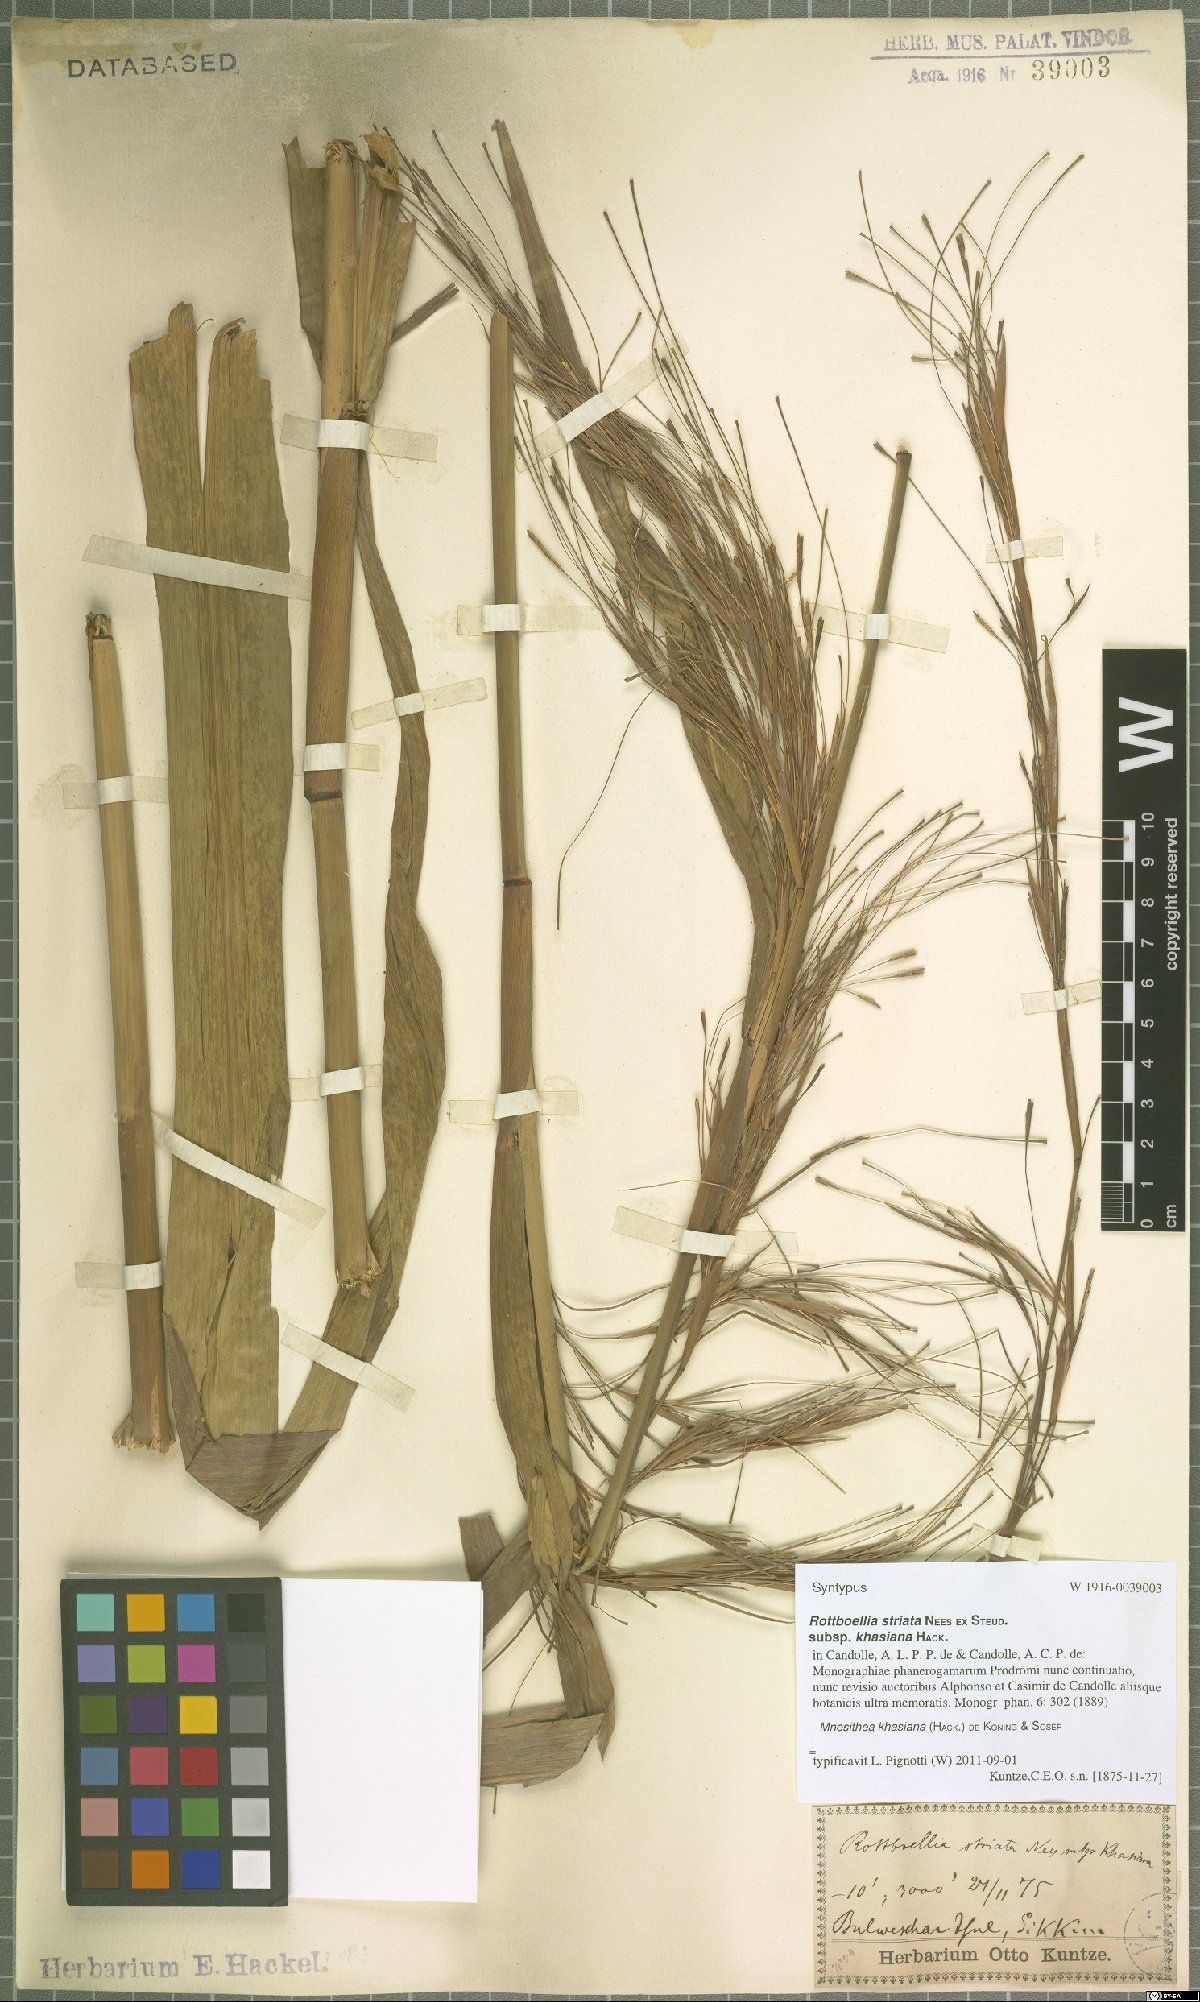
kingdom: Plantae
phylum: Tracheophyta
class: Liliopsida
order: Poales
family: Poaceae
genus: Rottboellia
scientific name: Rottboellia striata
